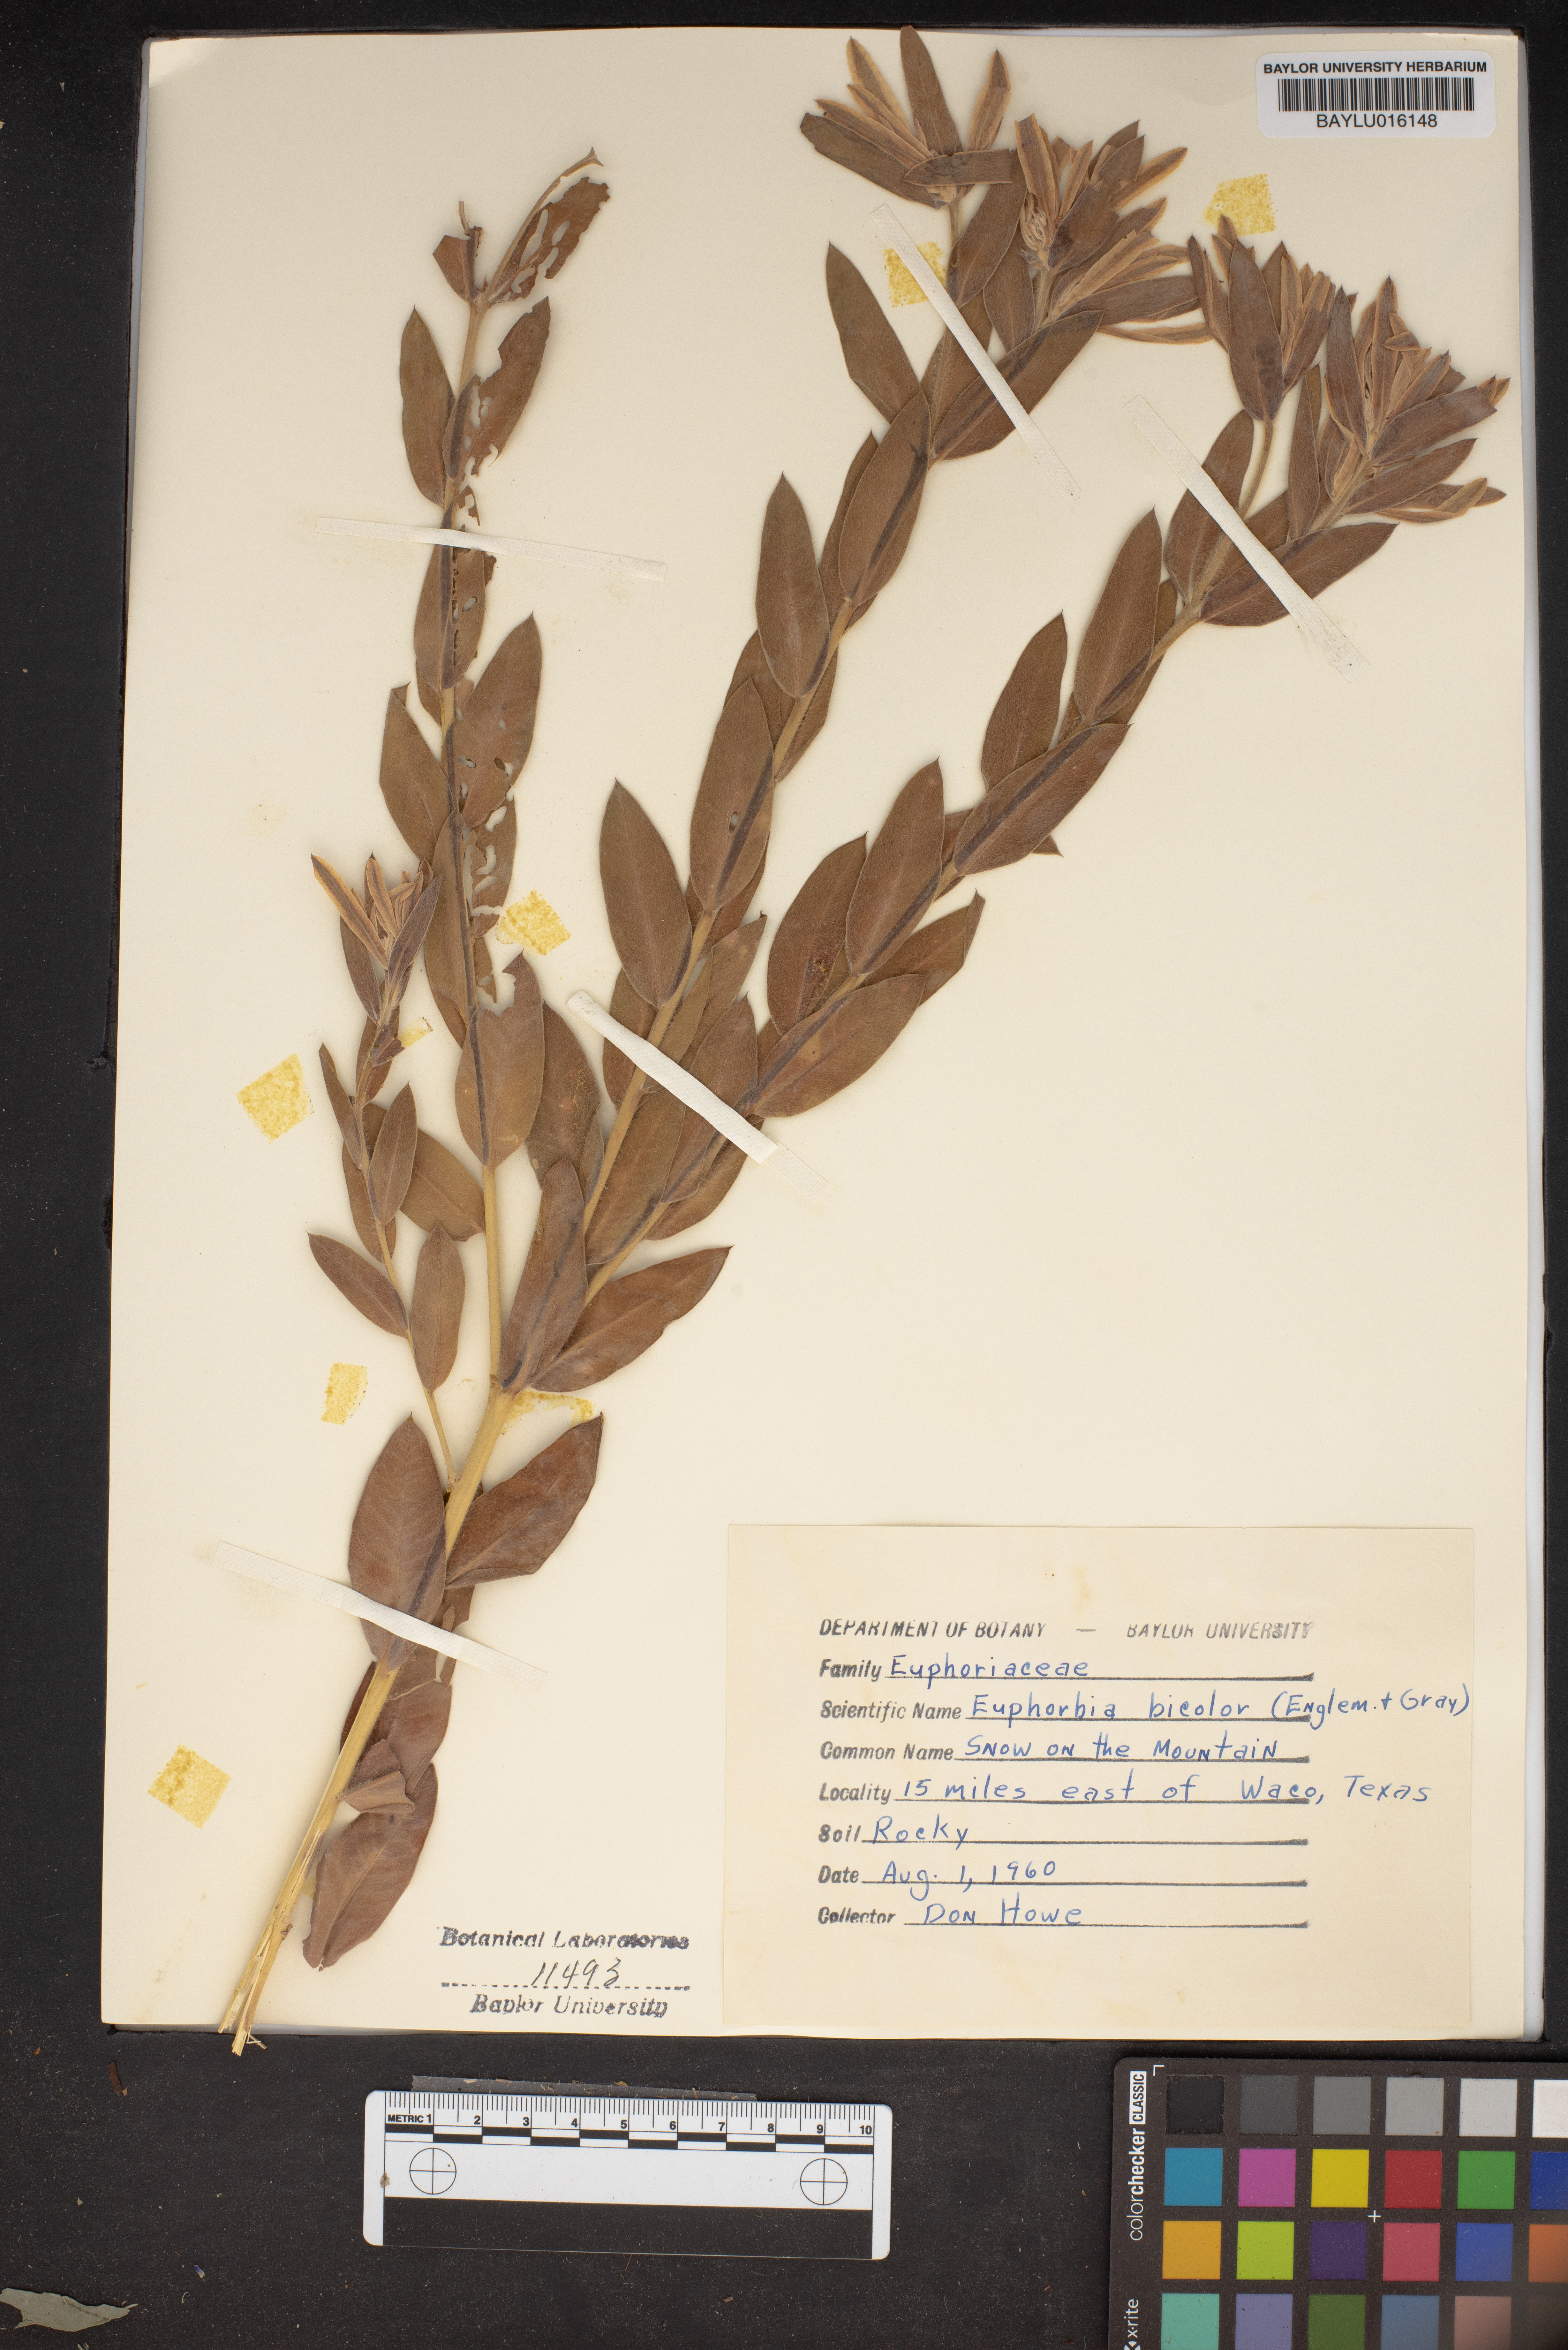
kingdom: Plantae
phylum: Tracheophyta
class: Magnoliopsida
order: Malpighiales
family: Euphorbiaceae
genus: Euphorbia
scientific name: Euphorbia bicolor
